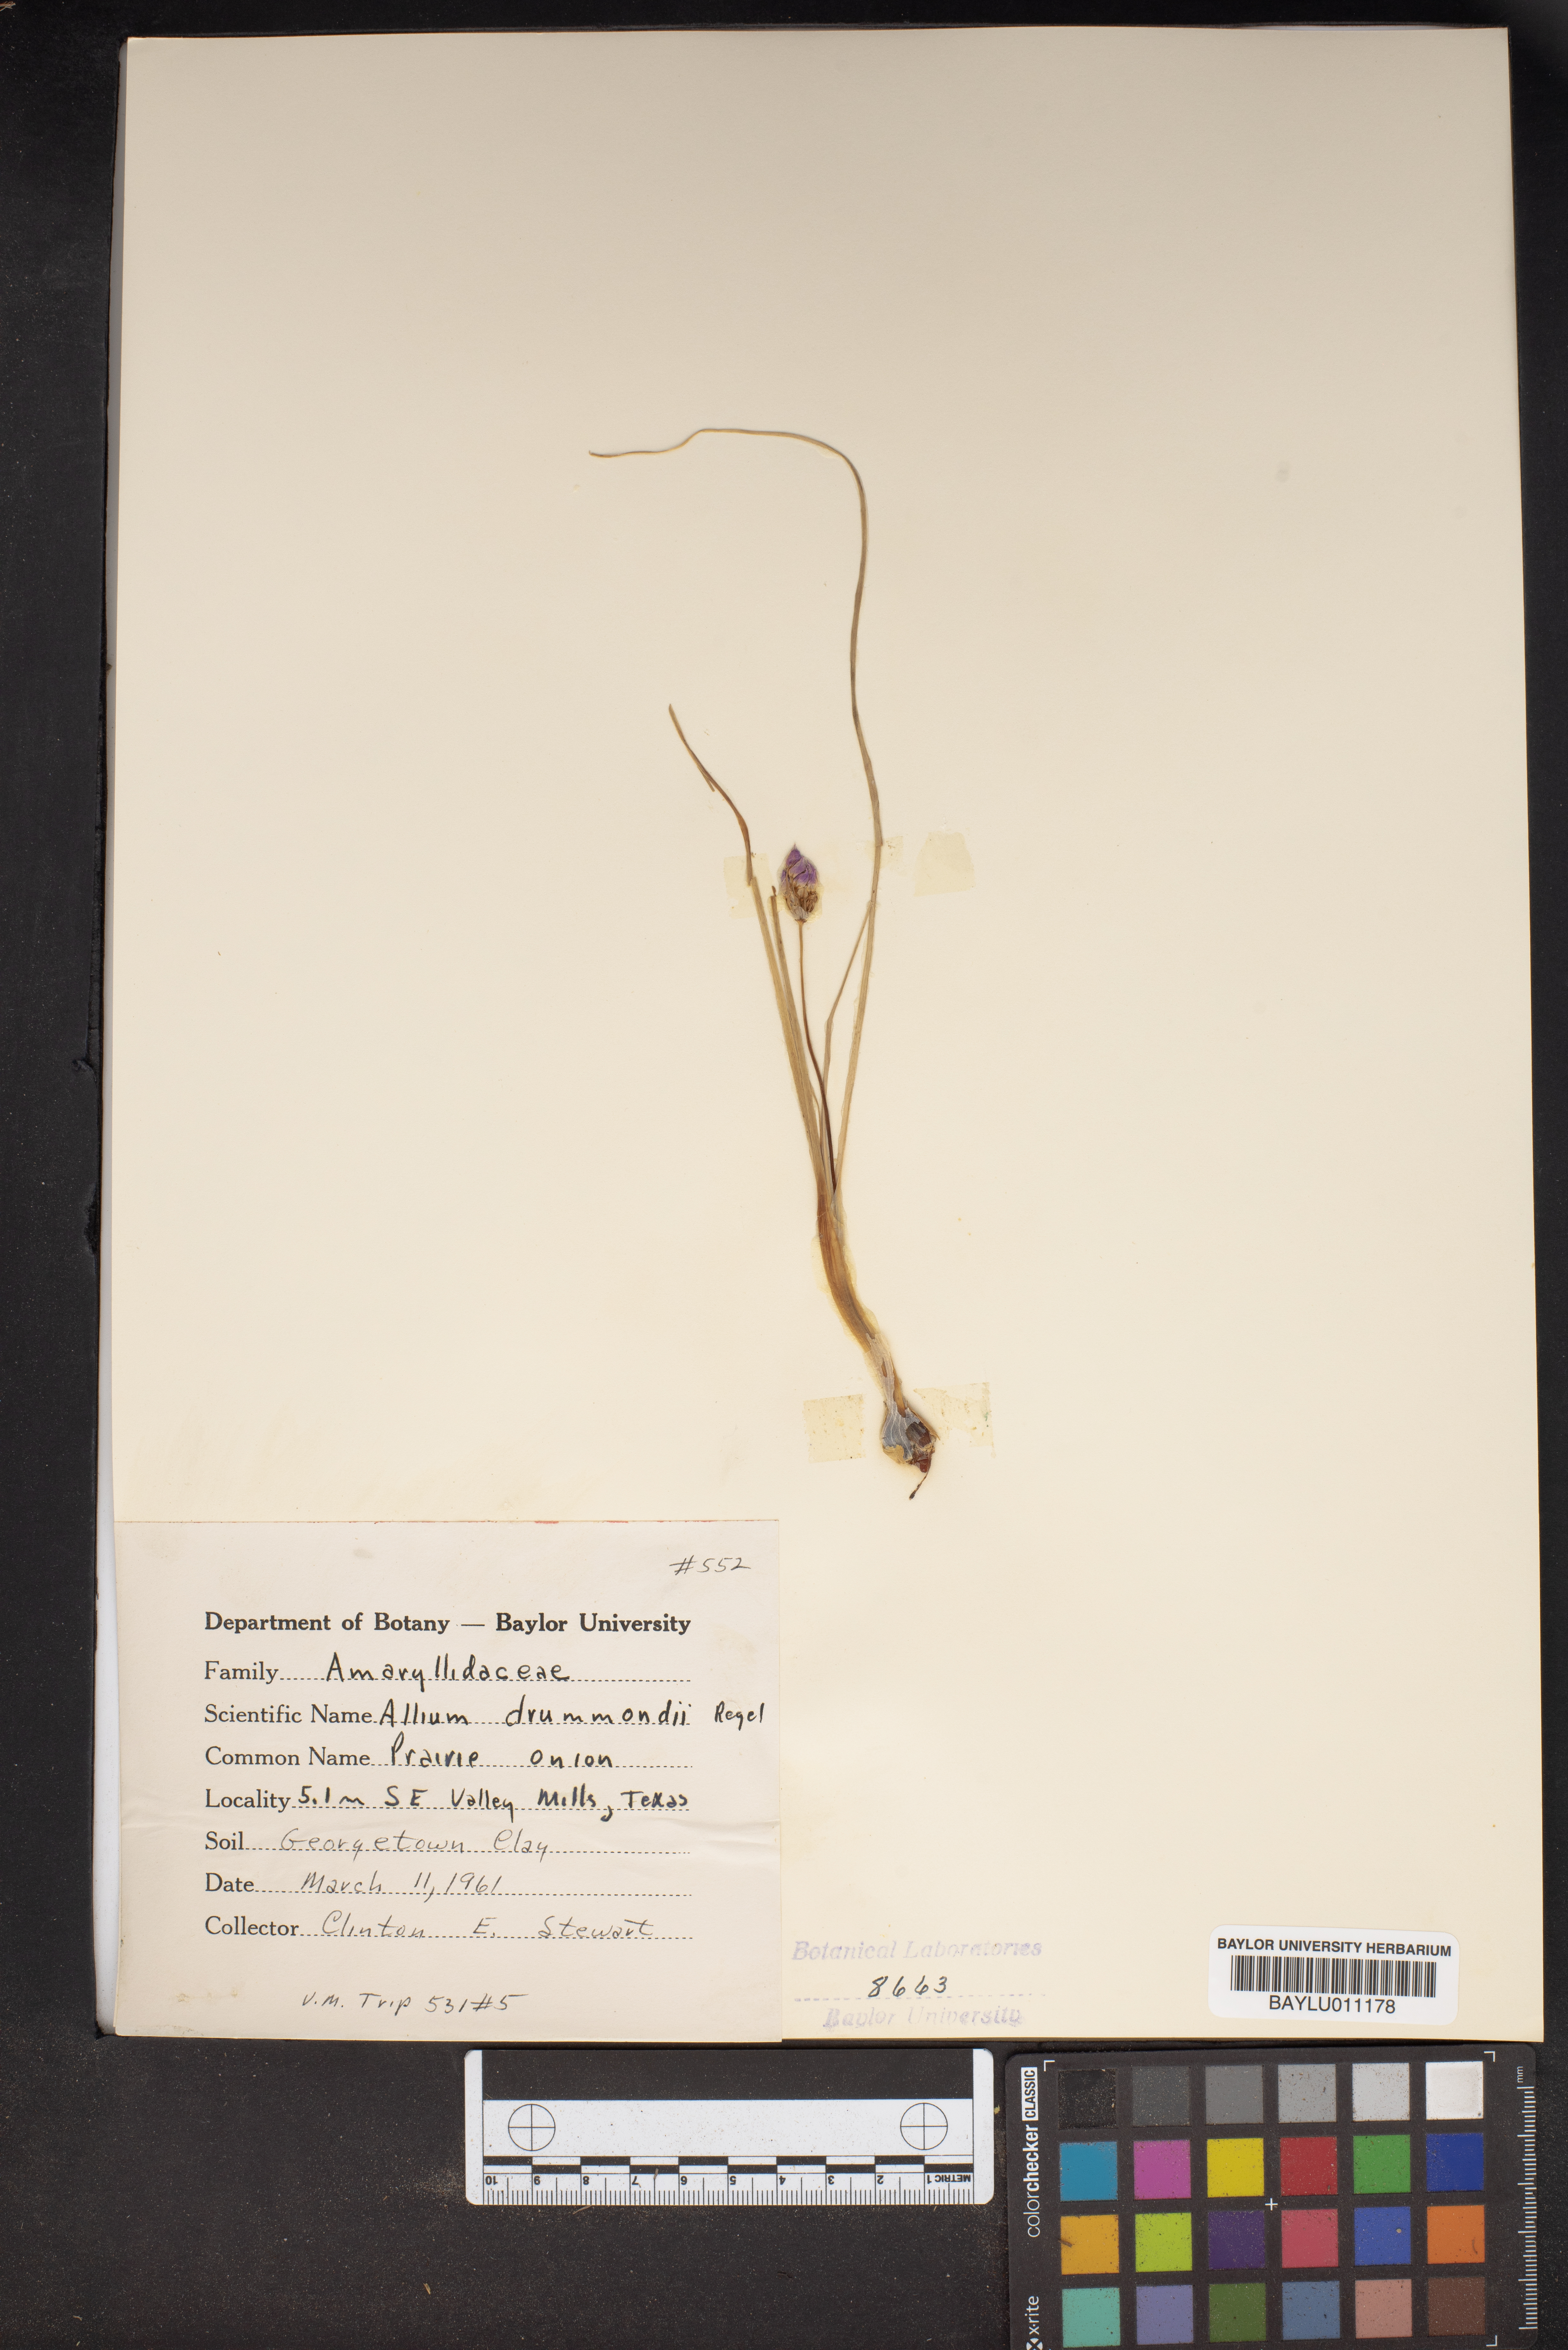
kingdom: Plantae
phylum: Tracheophyta
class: Liliopsida
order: Asparagales
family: Amaryllidaceae
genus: Allium
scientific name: Allium drummondii
